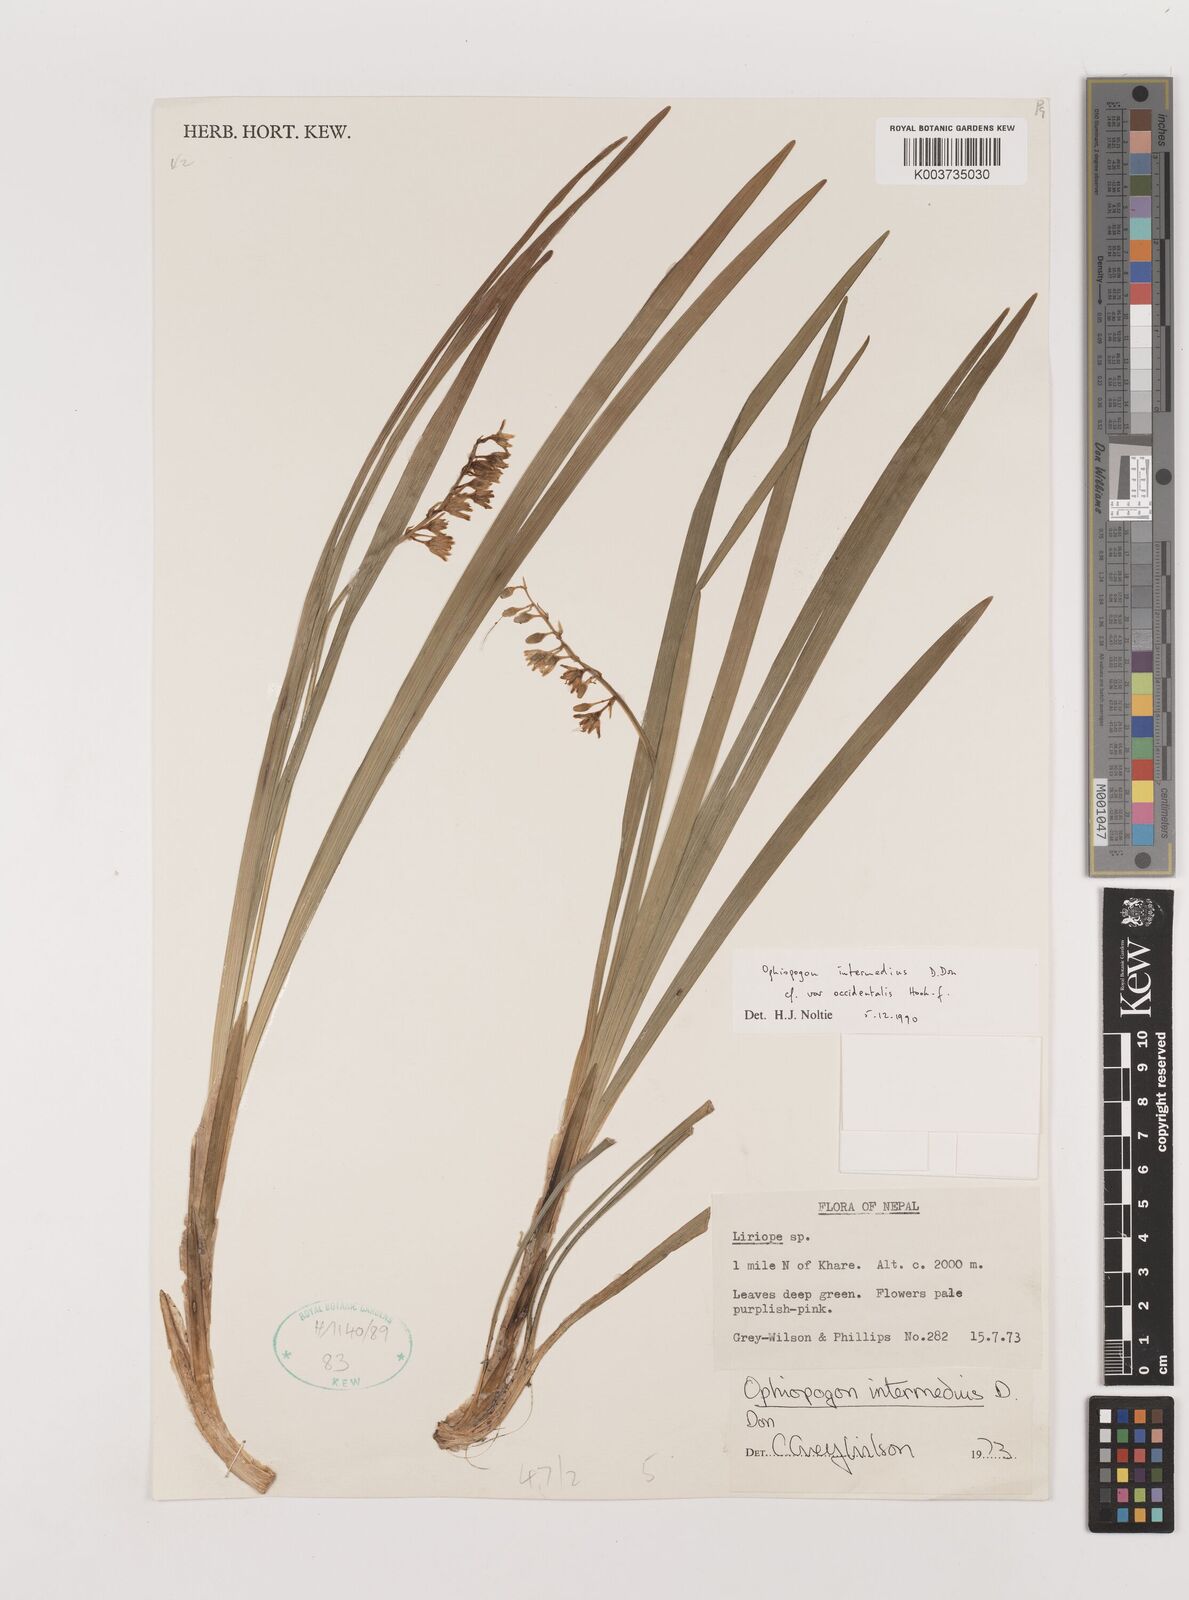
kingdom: Plantae
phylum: Tracheophyta
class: Liliopsida
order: Asparagales
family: Asparagaceae
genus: Ophiopogon
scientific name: Ophiopogon intermedius
